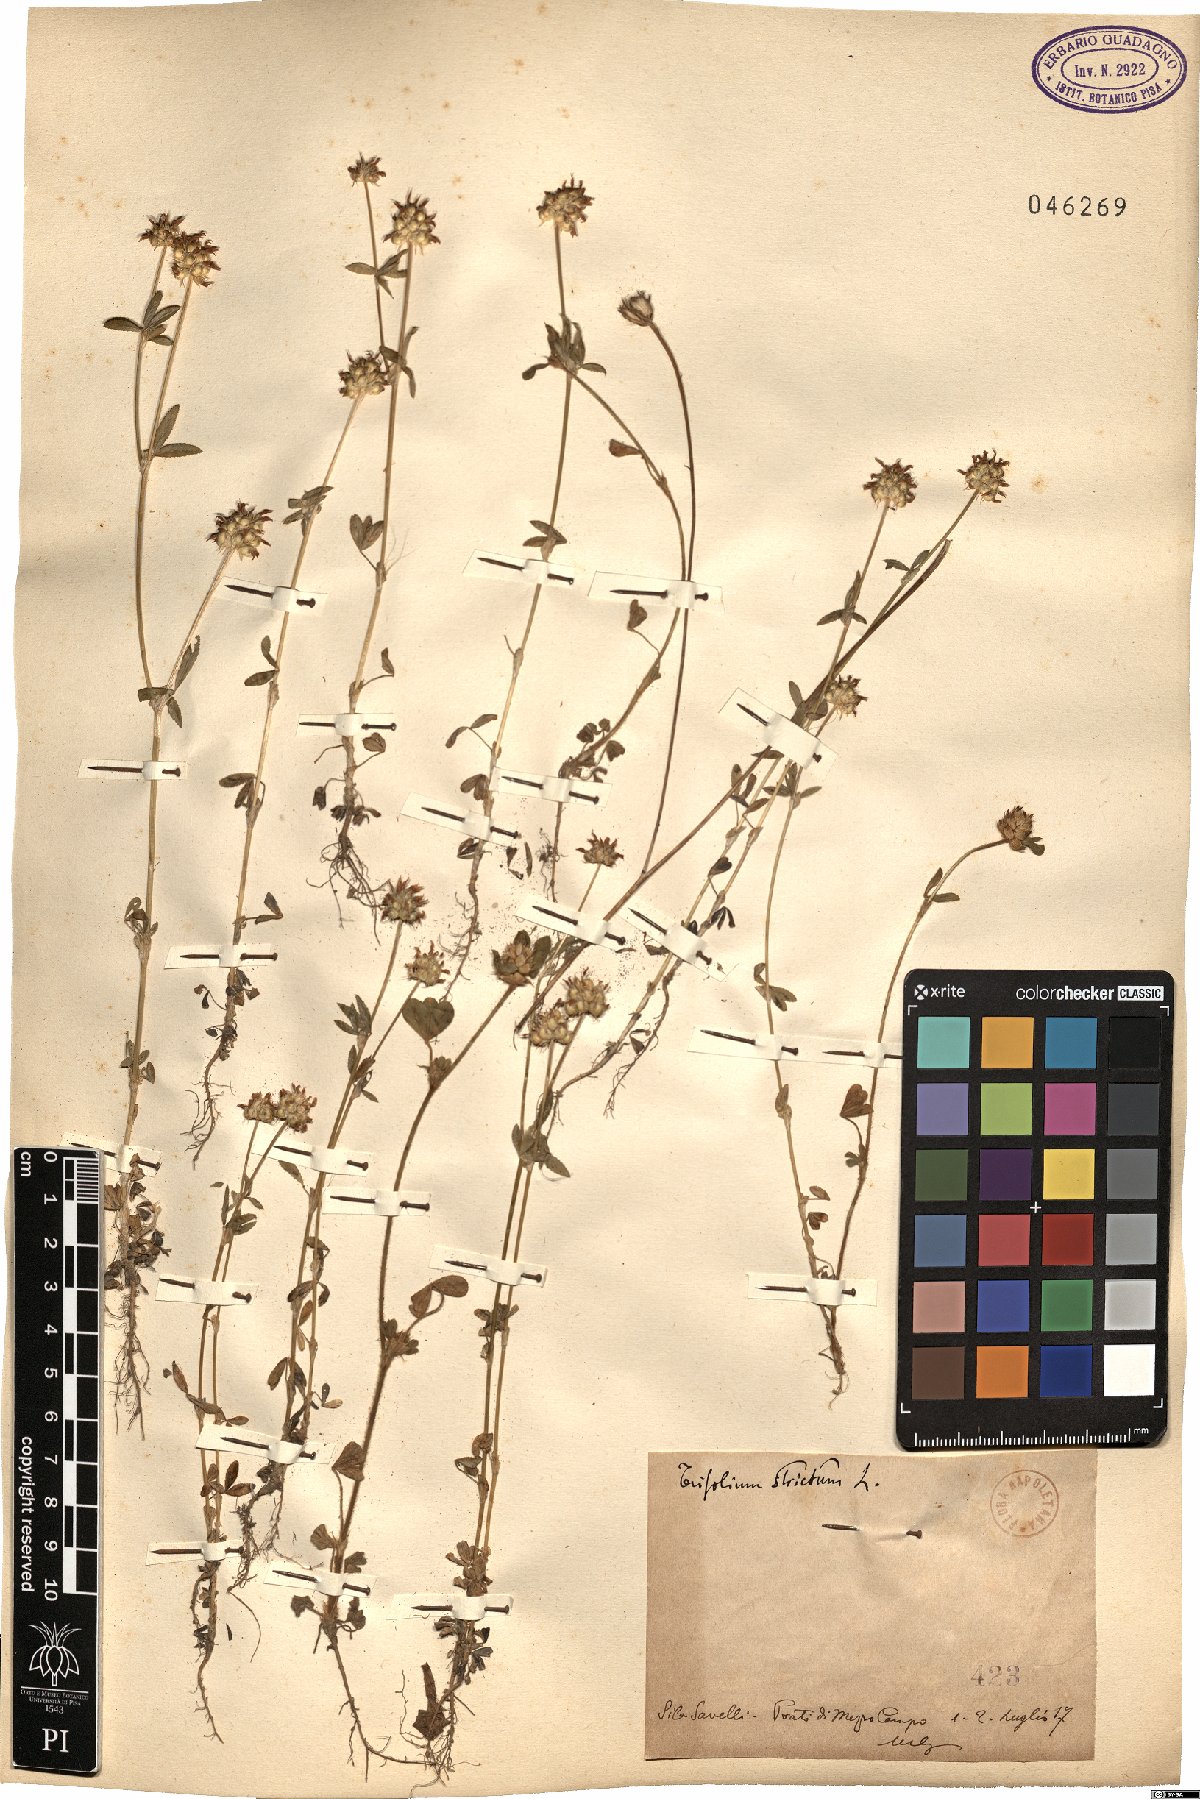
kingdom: Plantae
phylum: Tracheophyta
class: Magnoliopsida
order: Fabales
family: Fabaceae
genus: Trifolium
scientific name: Trifolium strictum
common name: Upright clover
